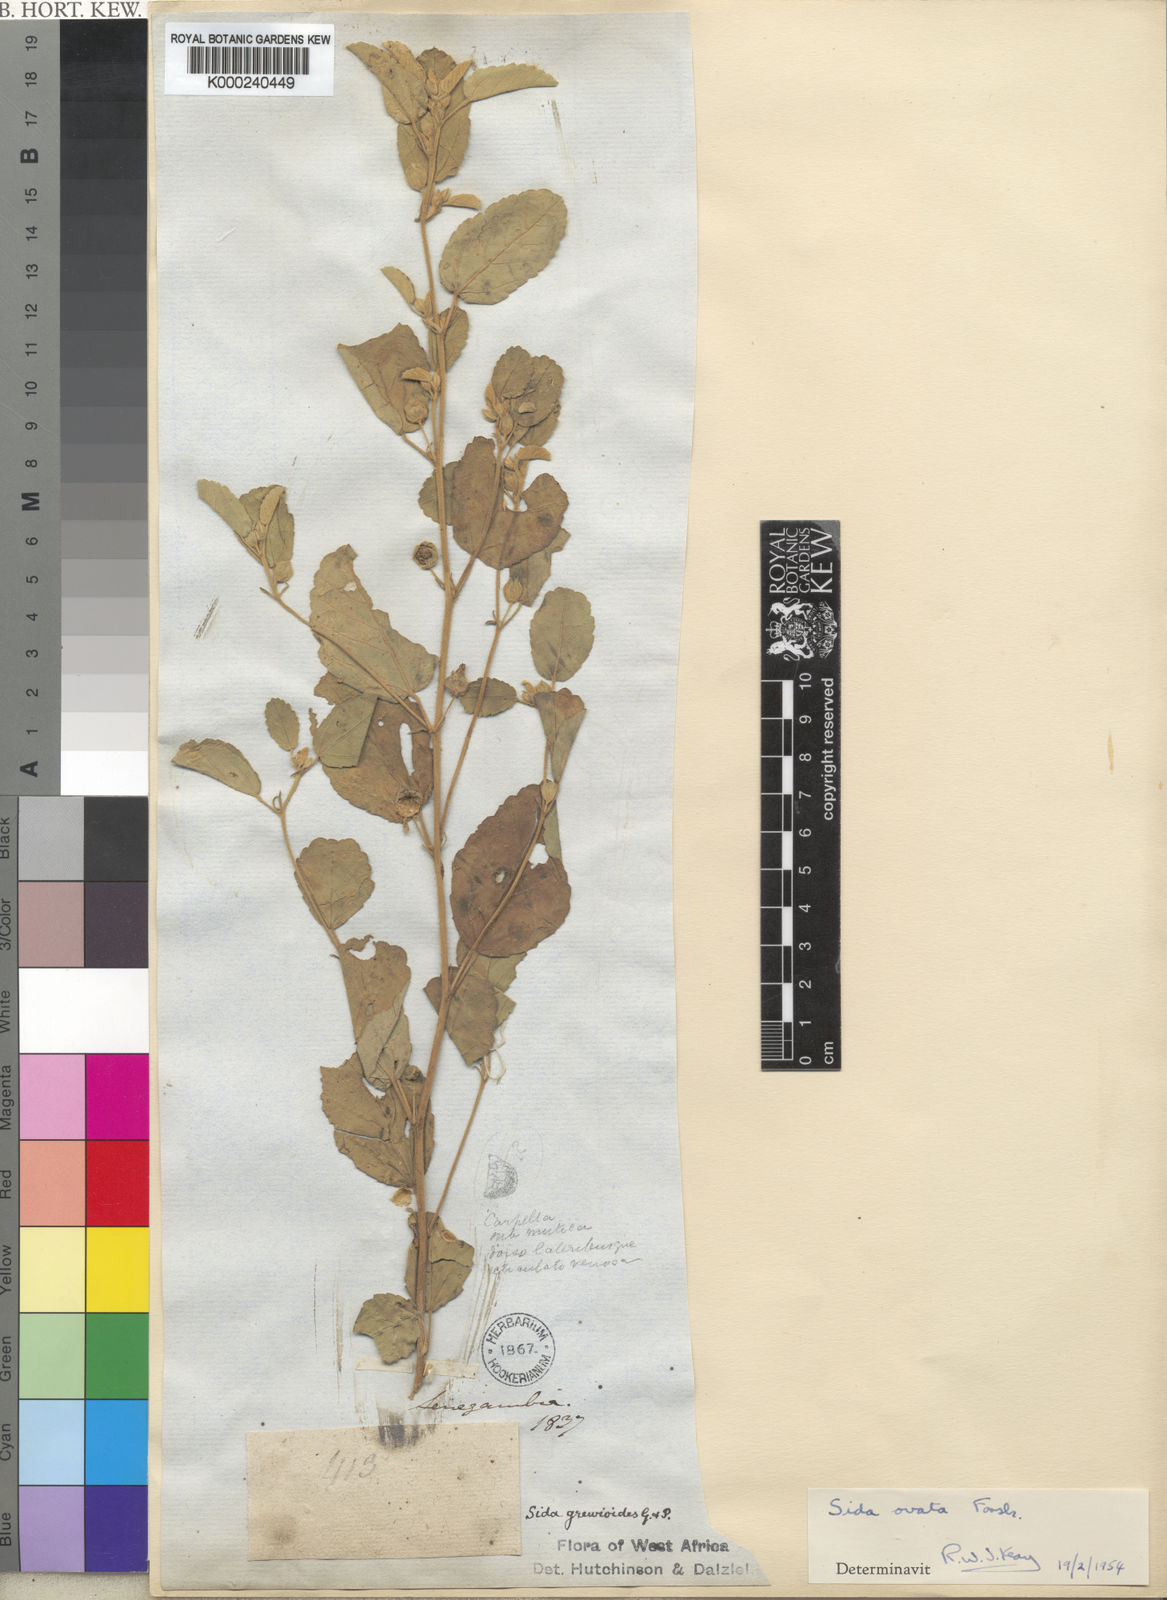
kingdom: Plantae
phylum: Tracheophyta
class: Magnoliopsida
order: Malvales
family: Malvaceae
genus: Sida
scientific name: Sida ovata
